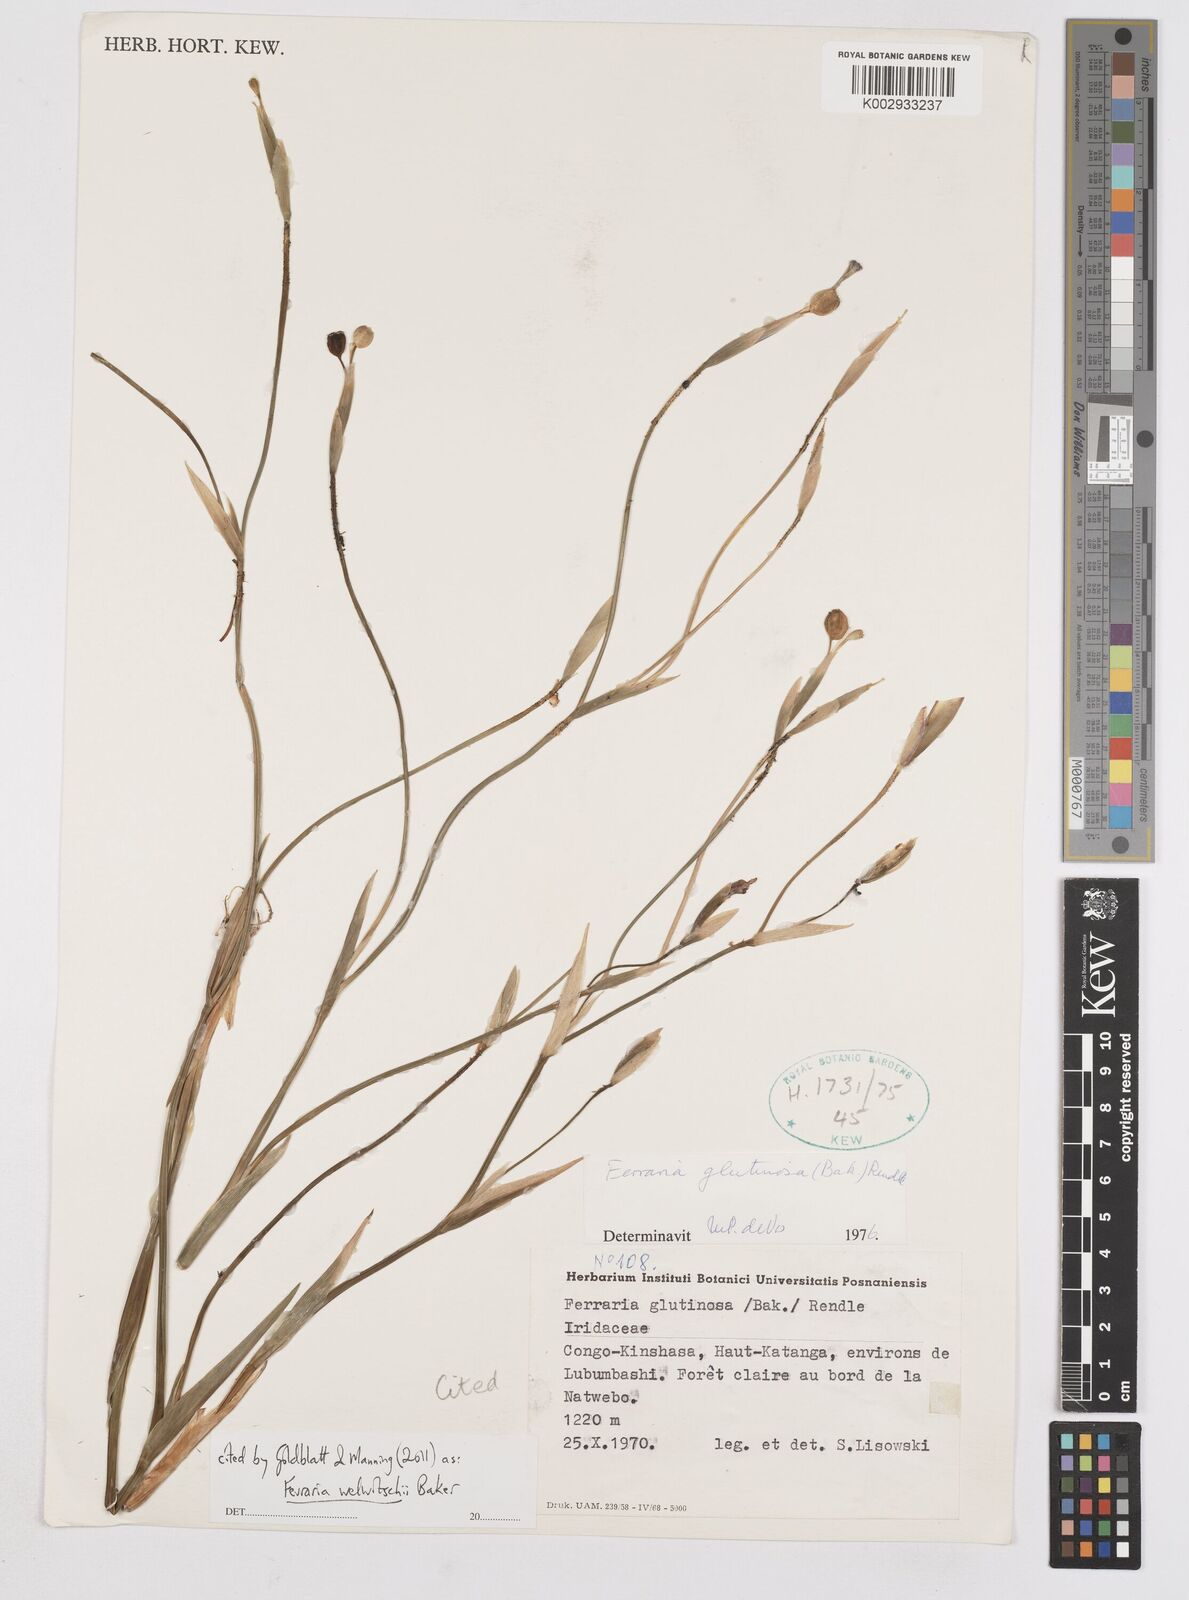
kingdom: Plantae
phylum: Tracheophyta
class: Liliopsida
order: Asparagales
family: Iridaceae
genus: Ferraria
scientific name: Ferraria welwitschii
